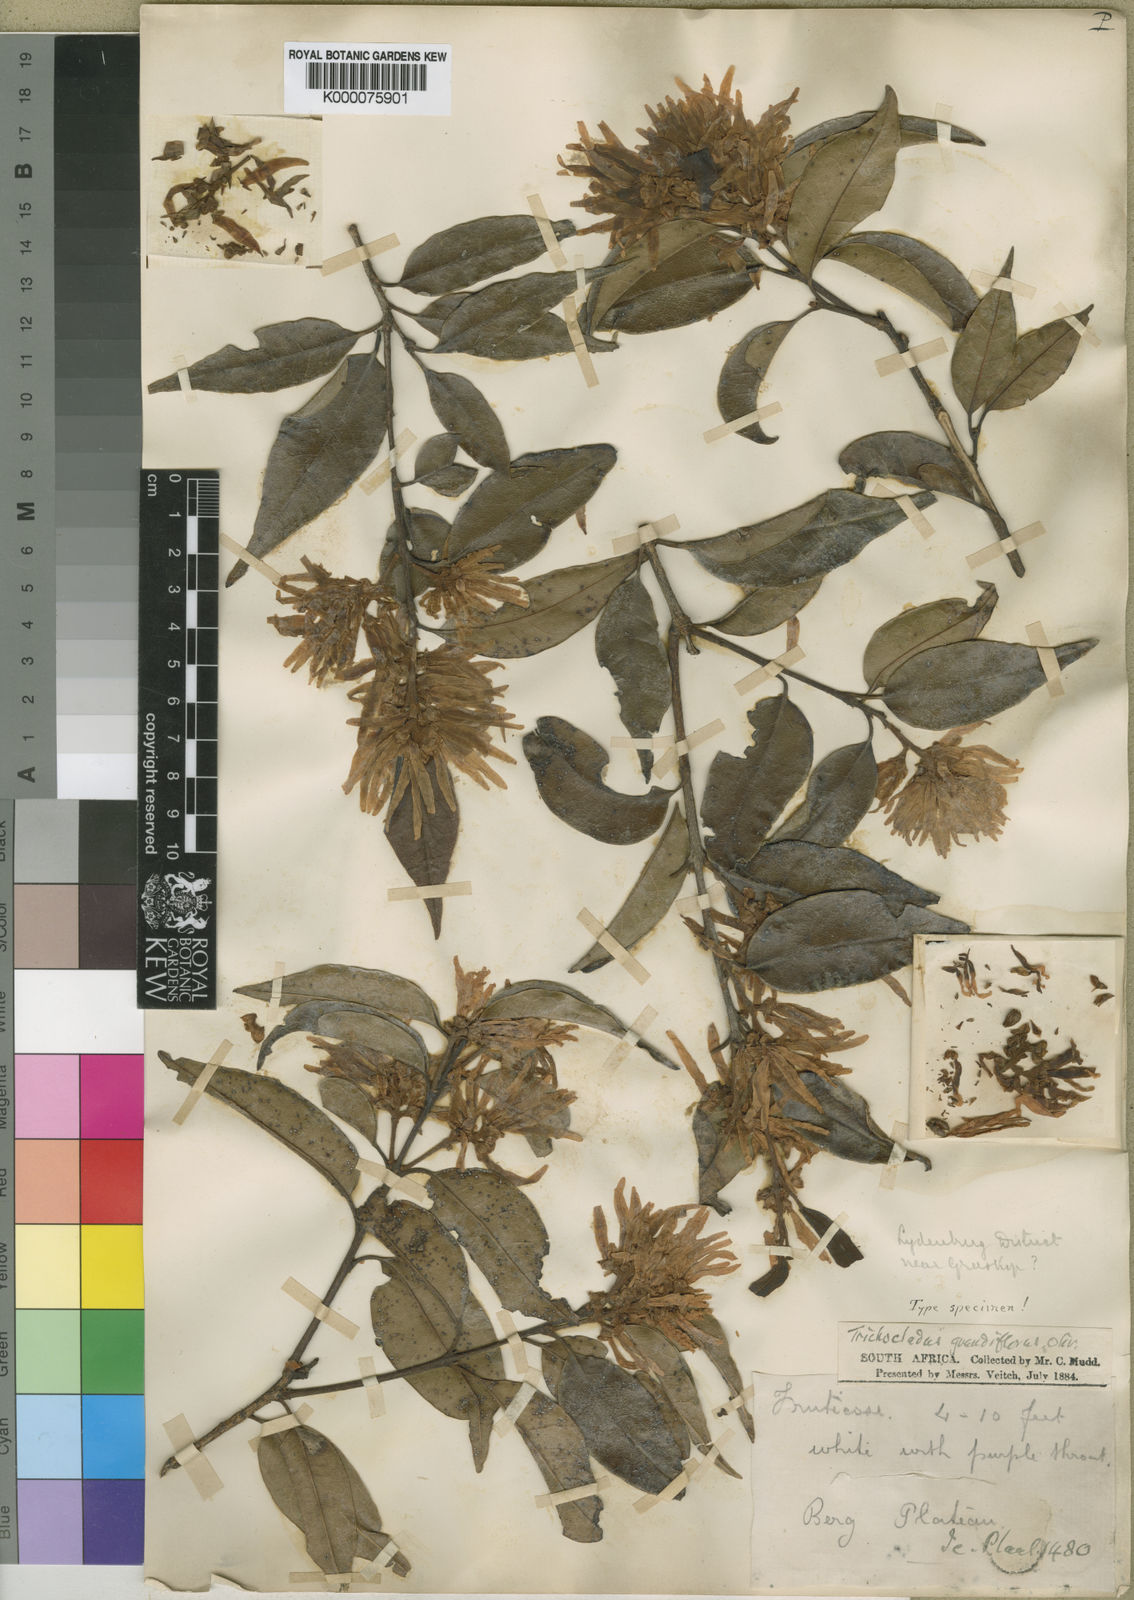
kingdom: Plantae
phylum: Tracheophyta
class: Magnoliopsida
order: Saxifragales
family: Hamamelidaceae
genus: Trichocladus
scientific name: Trichocladus grandiflorus
